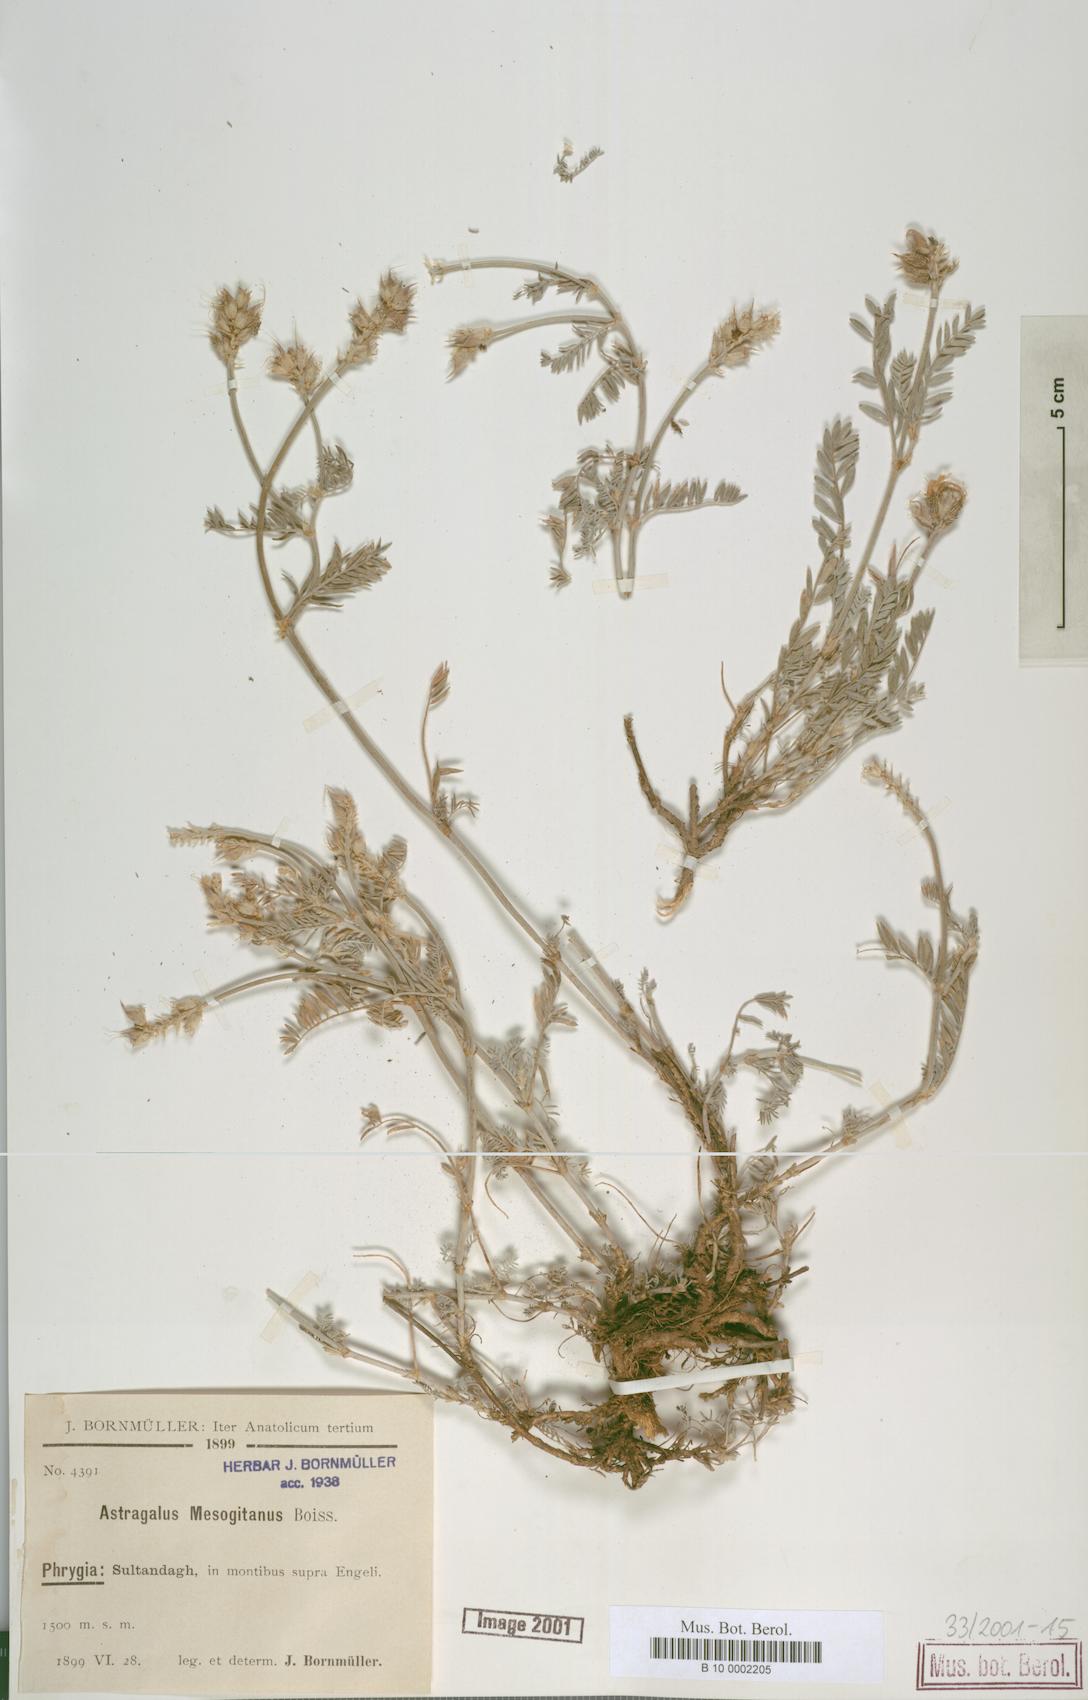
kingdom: Plantae
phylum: Tracheophyta
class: Magnoliopsida
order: Fabales
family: Fabaceae
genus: Astragalus
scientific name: Astragalus mesogitanus
